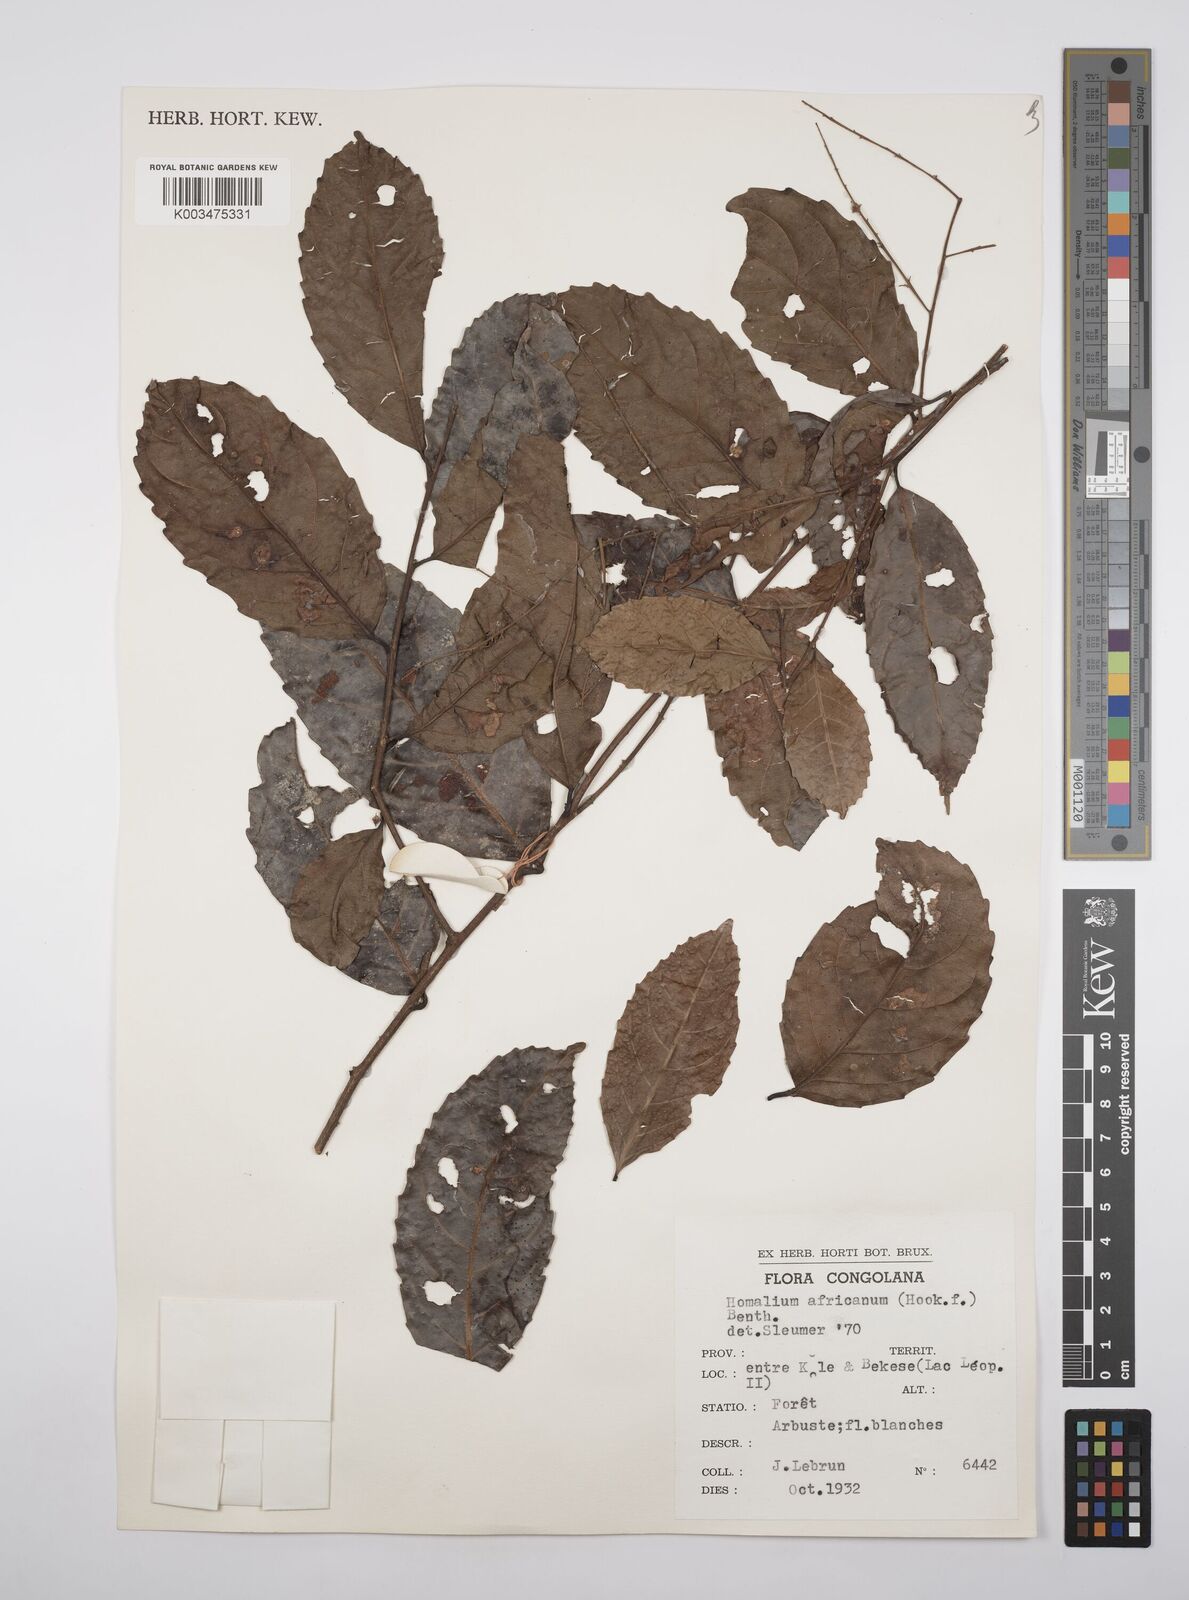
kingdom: Plantae
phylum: Tracheophyta
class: Magnoliopsida
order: Malpighiales
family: Salicaceae
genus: Homalium
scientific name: Homalium africanum
